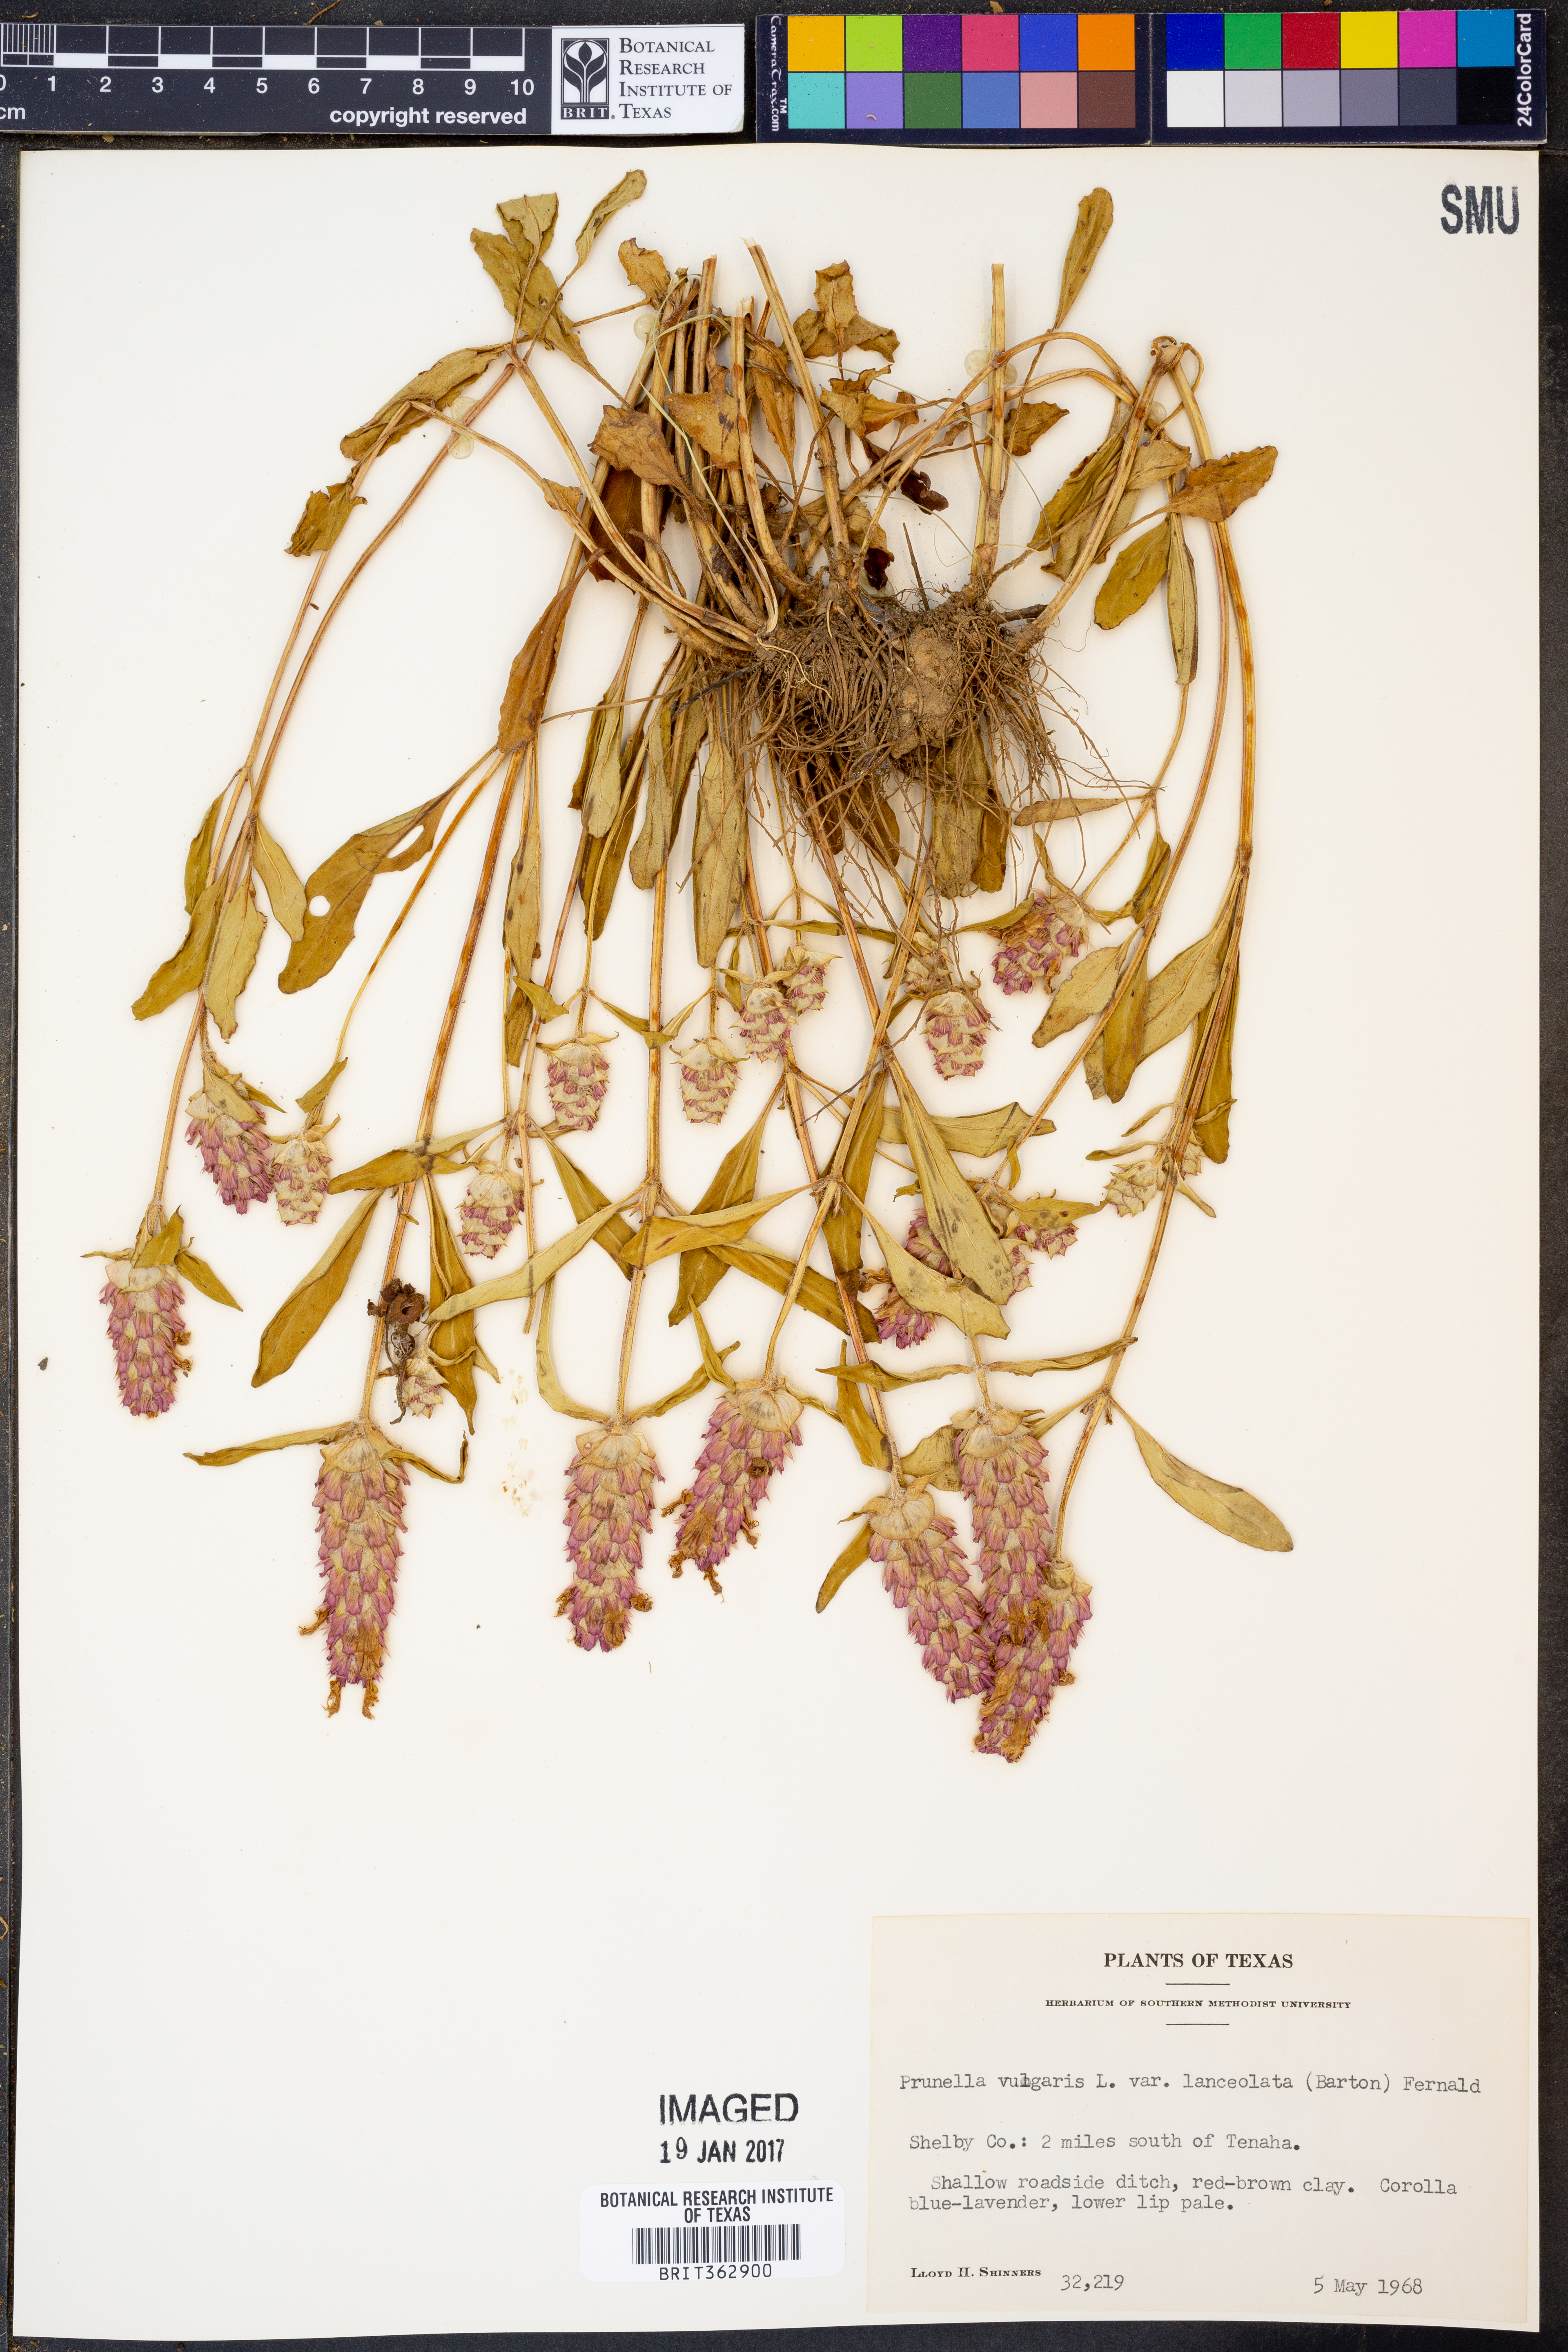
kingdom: Plantae
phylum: Tracheophyta
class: Magnoliopsida
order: Lamiales
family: Lamiaceae
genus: Prunella
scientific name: Prunella vulgaris
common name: Heal-all
